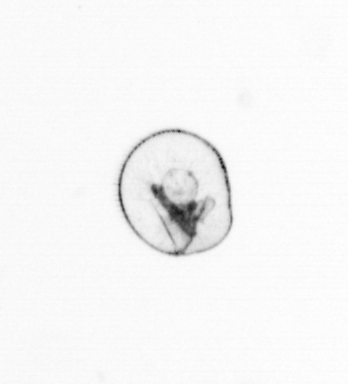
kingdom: Chromista
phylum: Myzozoa
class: Dinophyceae
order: Noctilucales
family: Noctilucaceae
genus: Noctiluca
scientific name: Noctiluca scintillans
